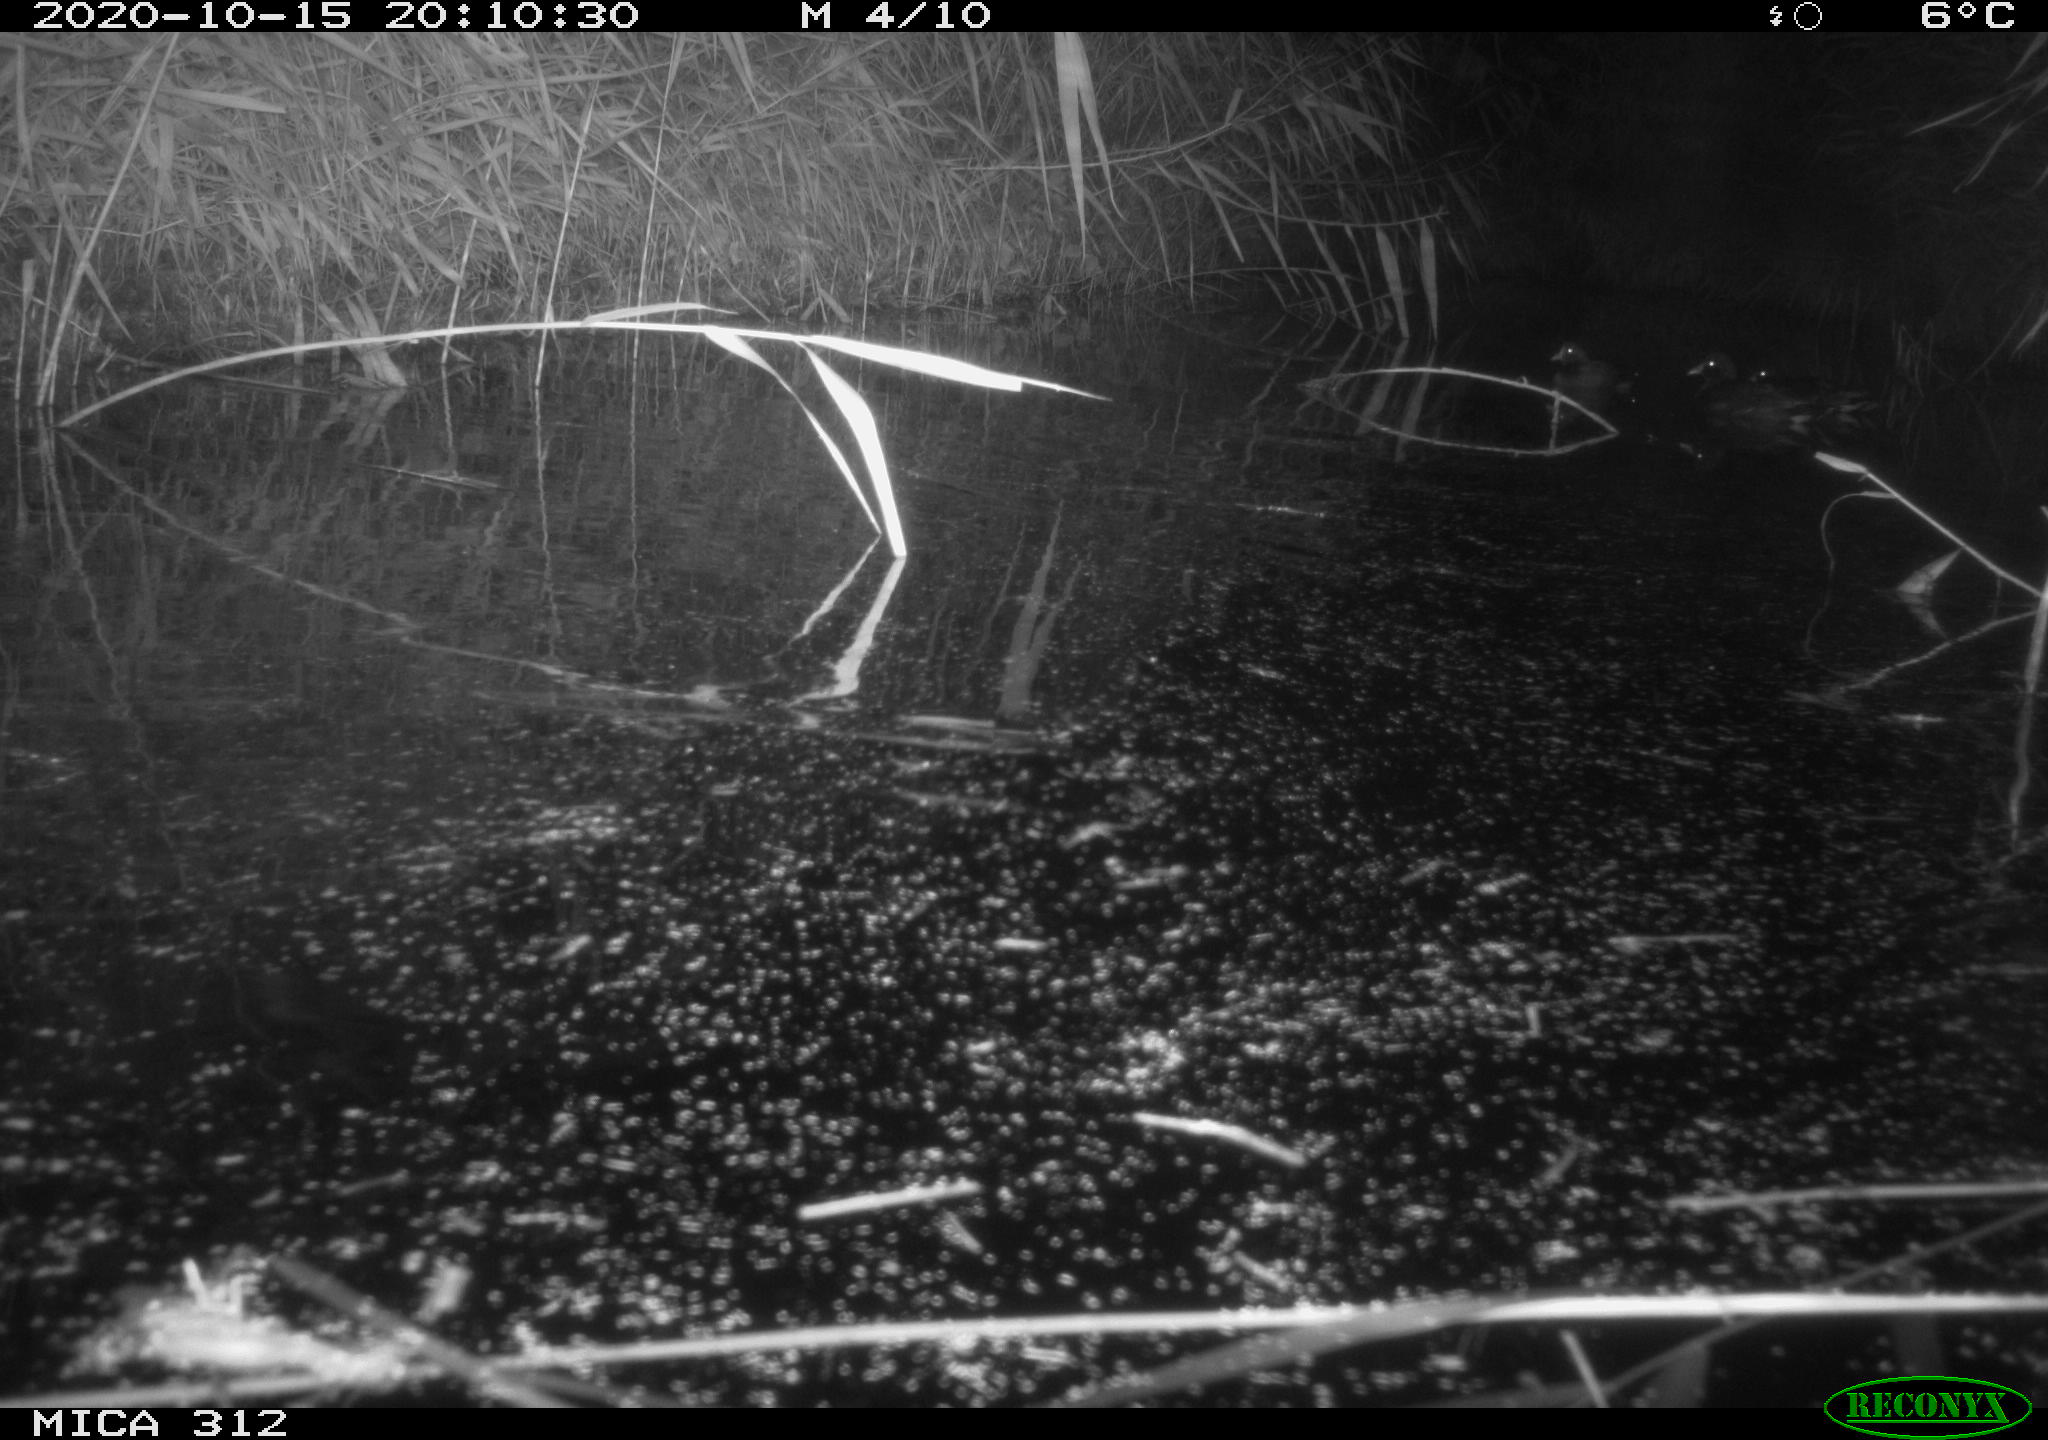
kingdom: Animalia
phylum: Chordata
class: Mammalia
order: Rodentia
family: Muridae
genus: Rattus
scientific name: Rattus norvegicus
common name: Brown rat
